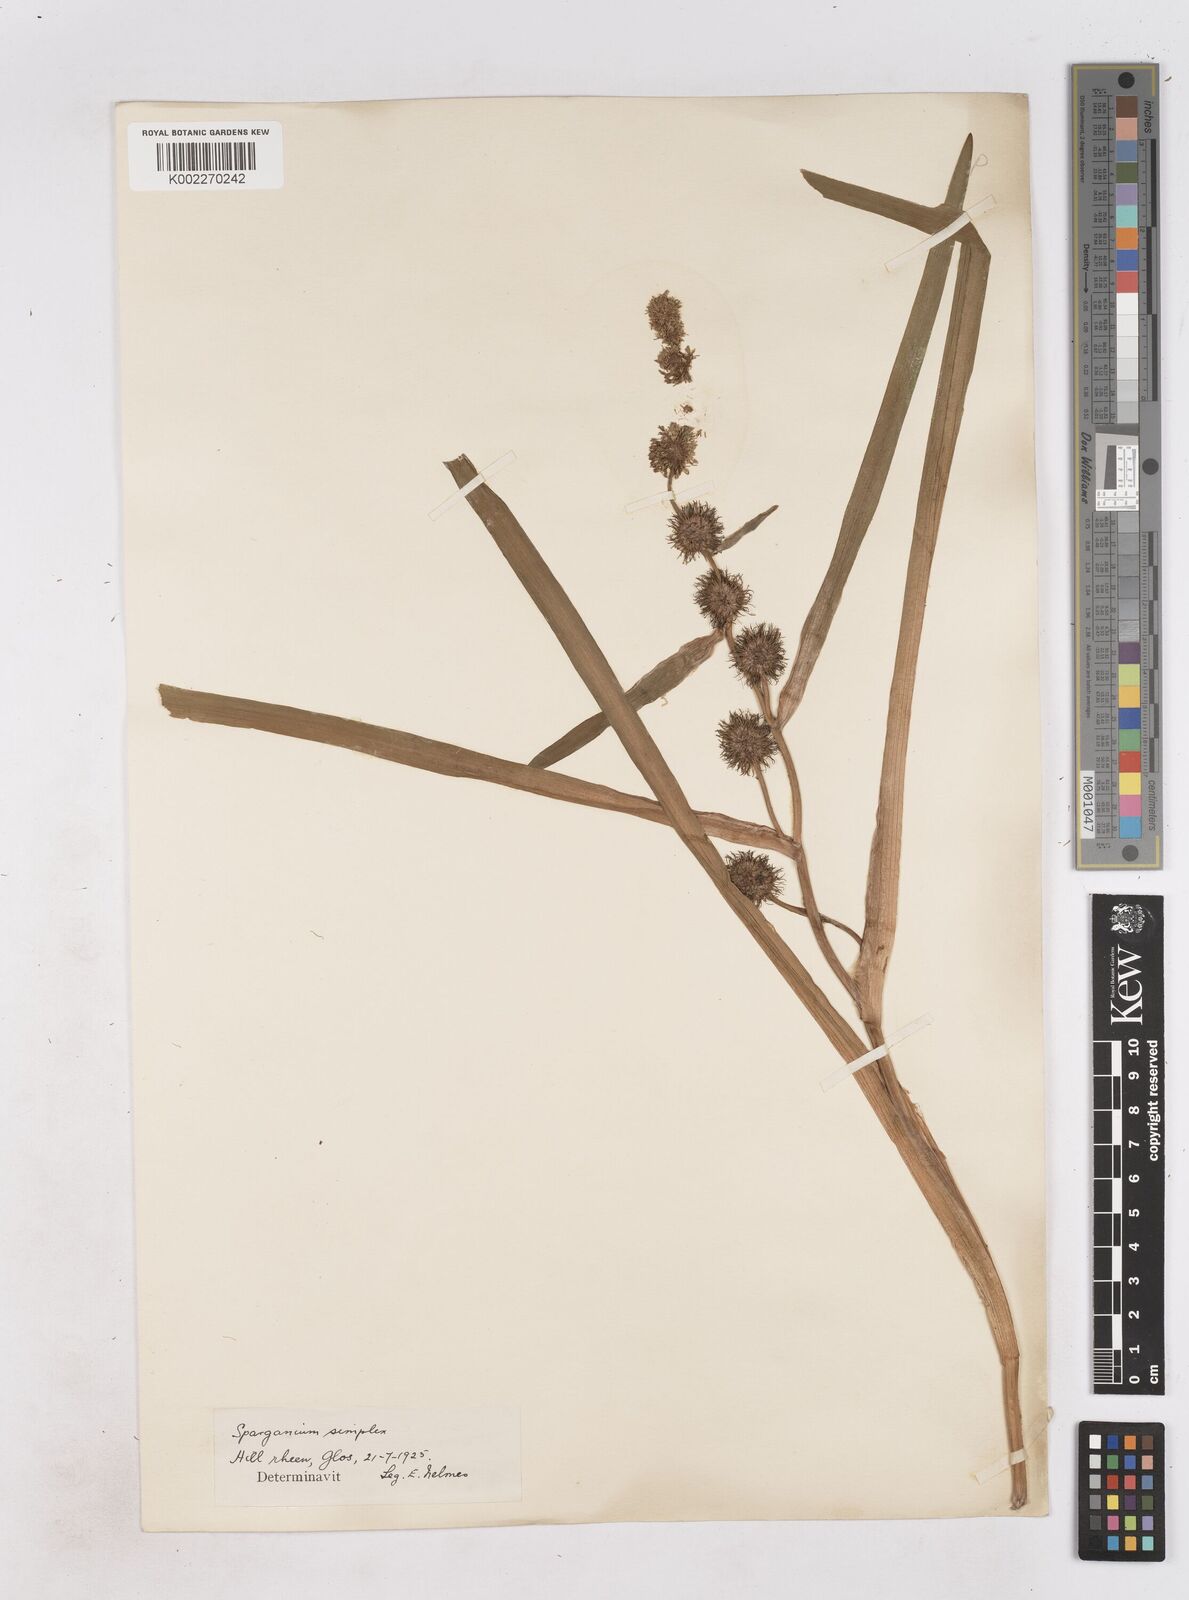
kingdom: Plantae
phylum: Tracheophyta
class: Liliopsida
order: Poales
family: Typhaceae
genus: Sparganium
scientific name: Sparganium emersum
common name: Unbranched bur-reed
